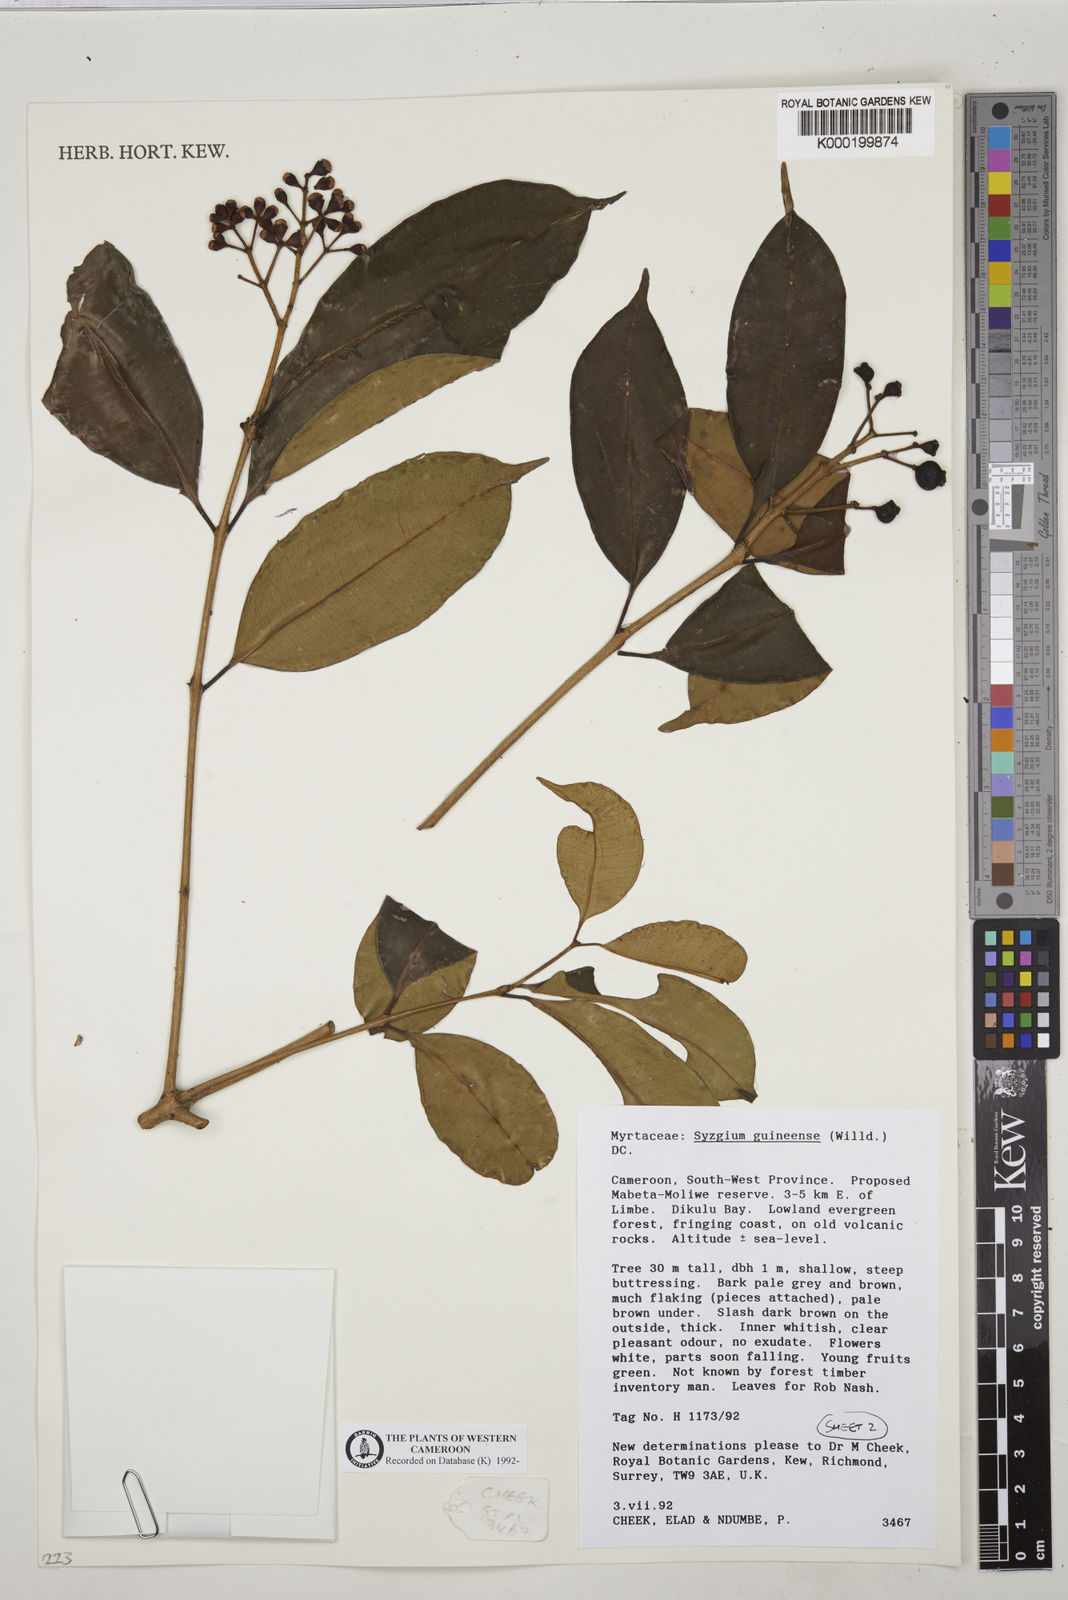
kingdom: Plantae
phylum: Tracheophyta
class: Magnoliopsida
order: Myrtales
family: Myrtaceae
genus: Syzygium
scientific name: Syzygium guineense
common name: Water-pear
